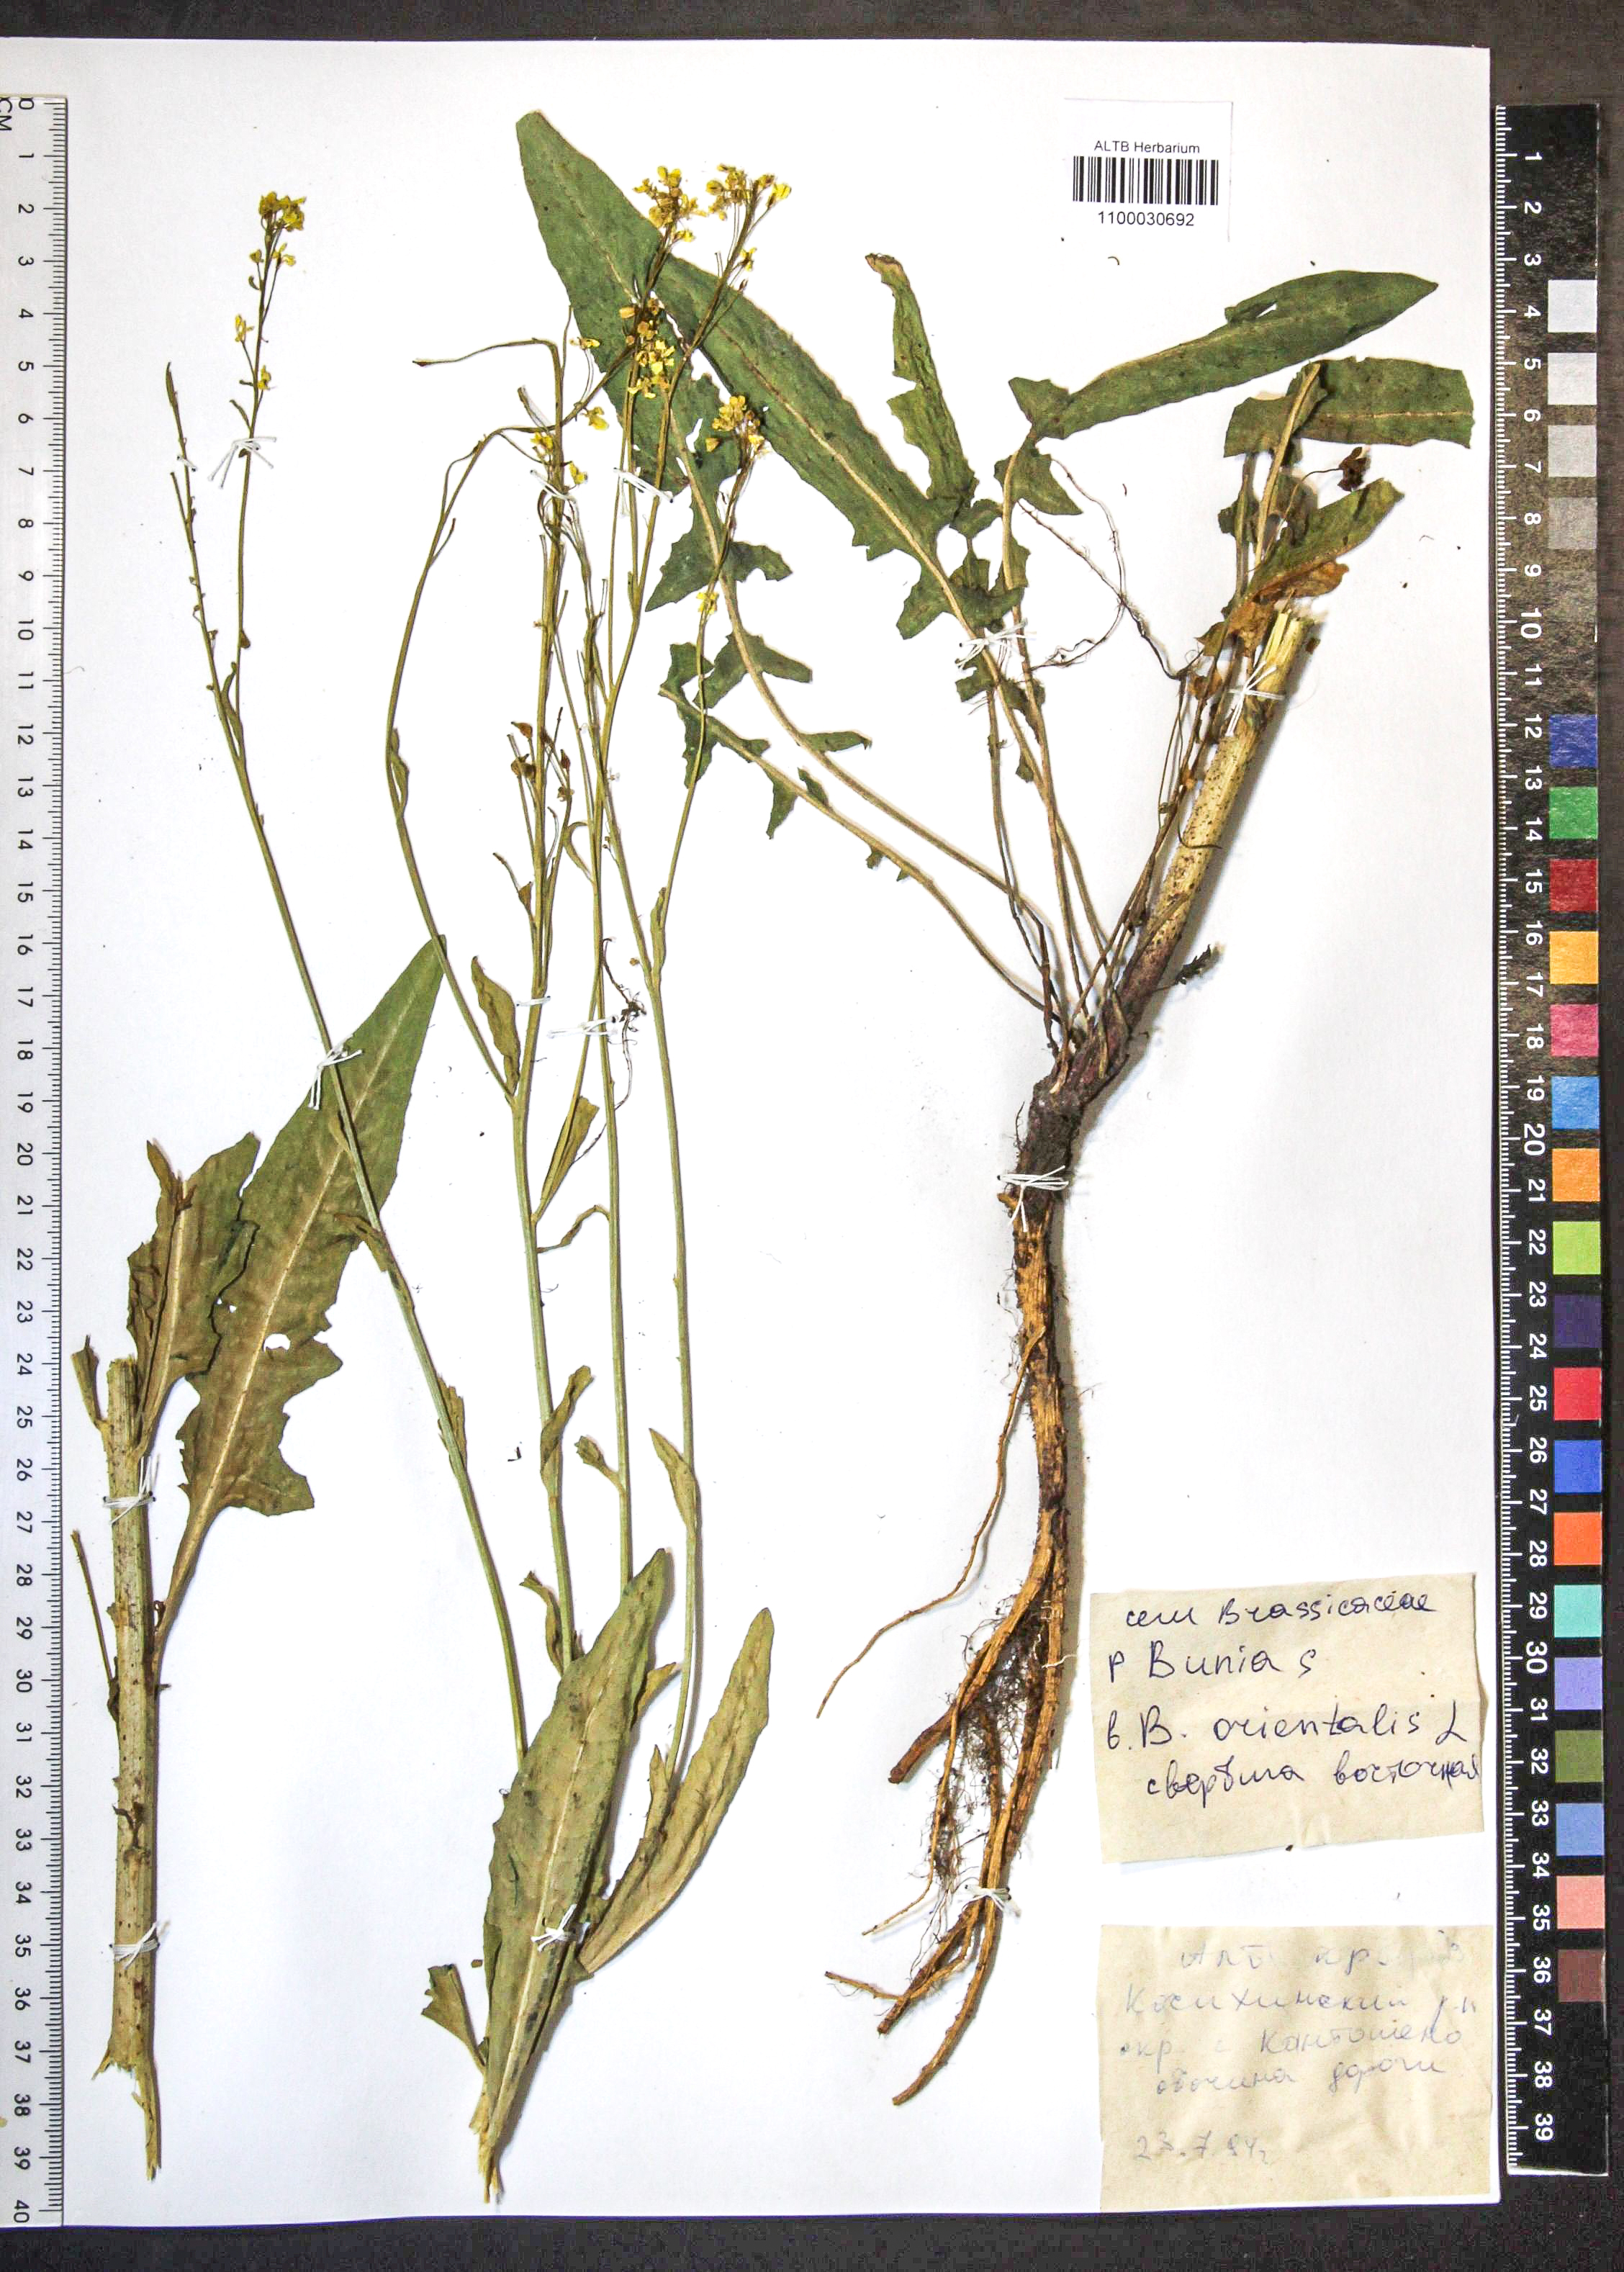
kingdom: Plantae
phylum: Tracheophyta
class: Magnoliopsida
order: Brassicales
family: Brassicaceae
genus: Bunias
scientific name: Bunias orientalis
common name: Warty-cabbage
